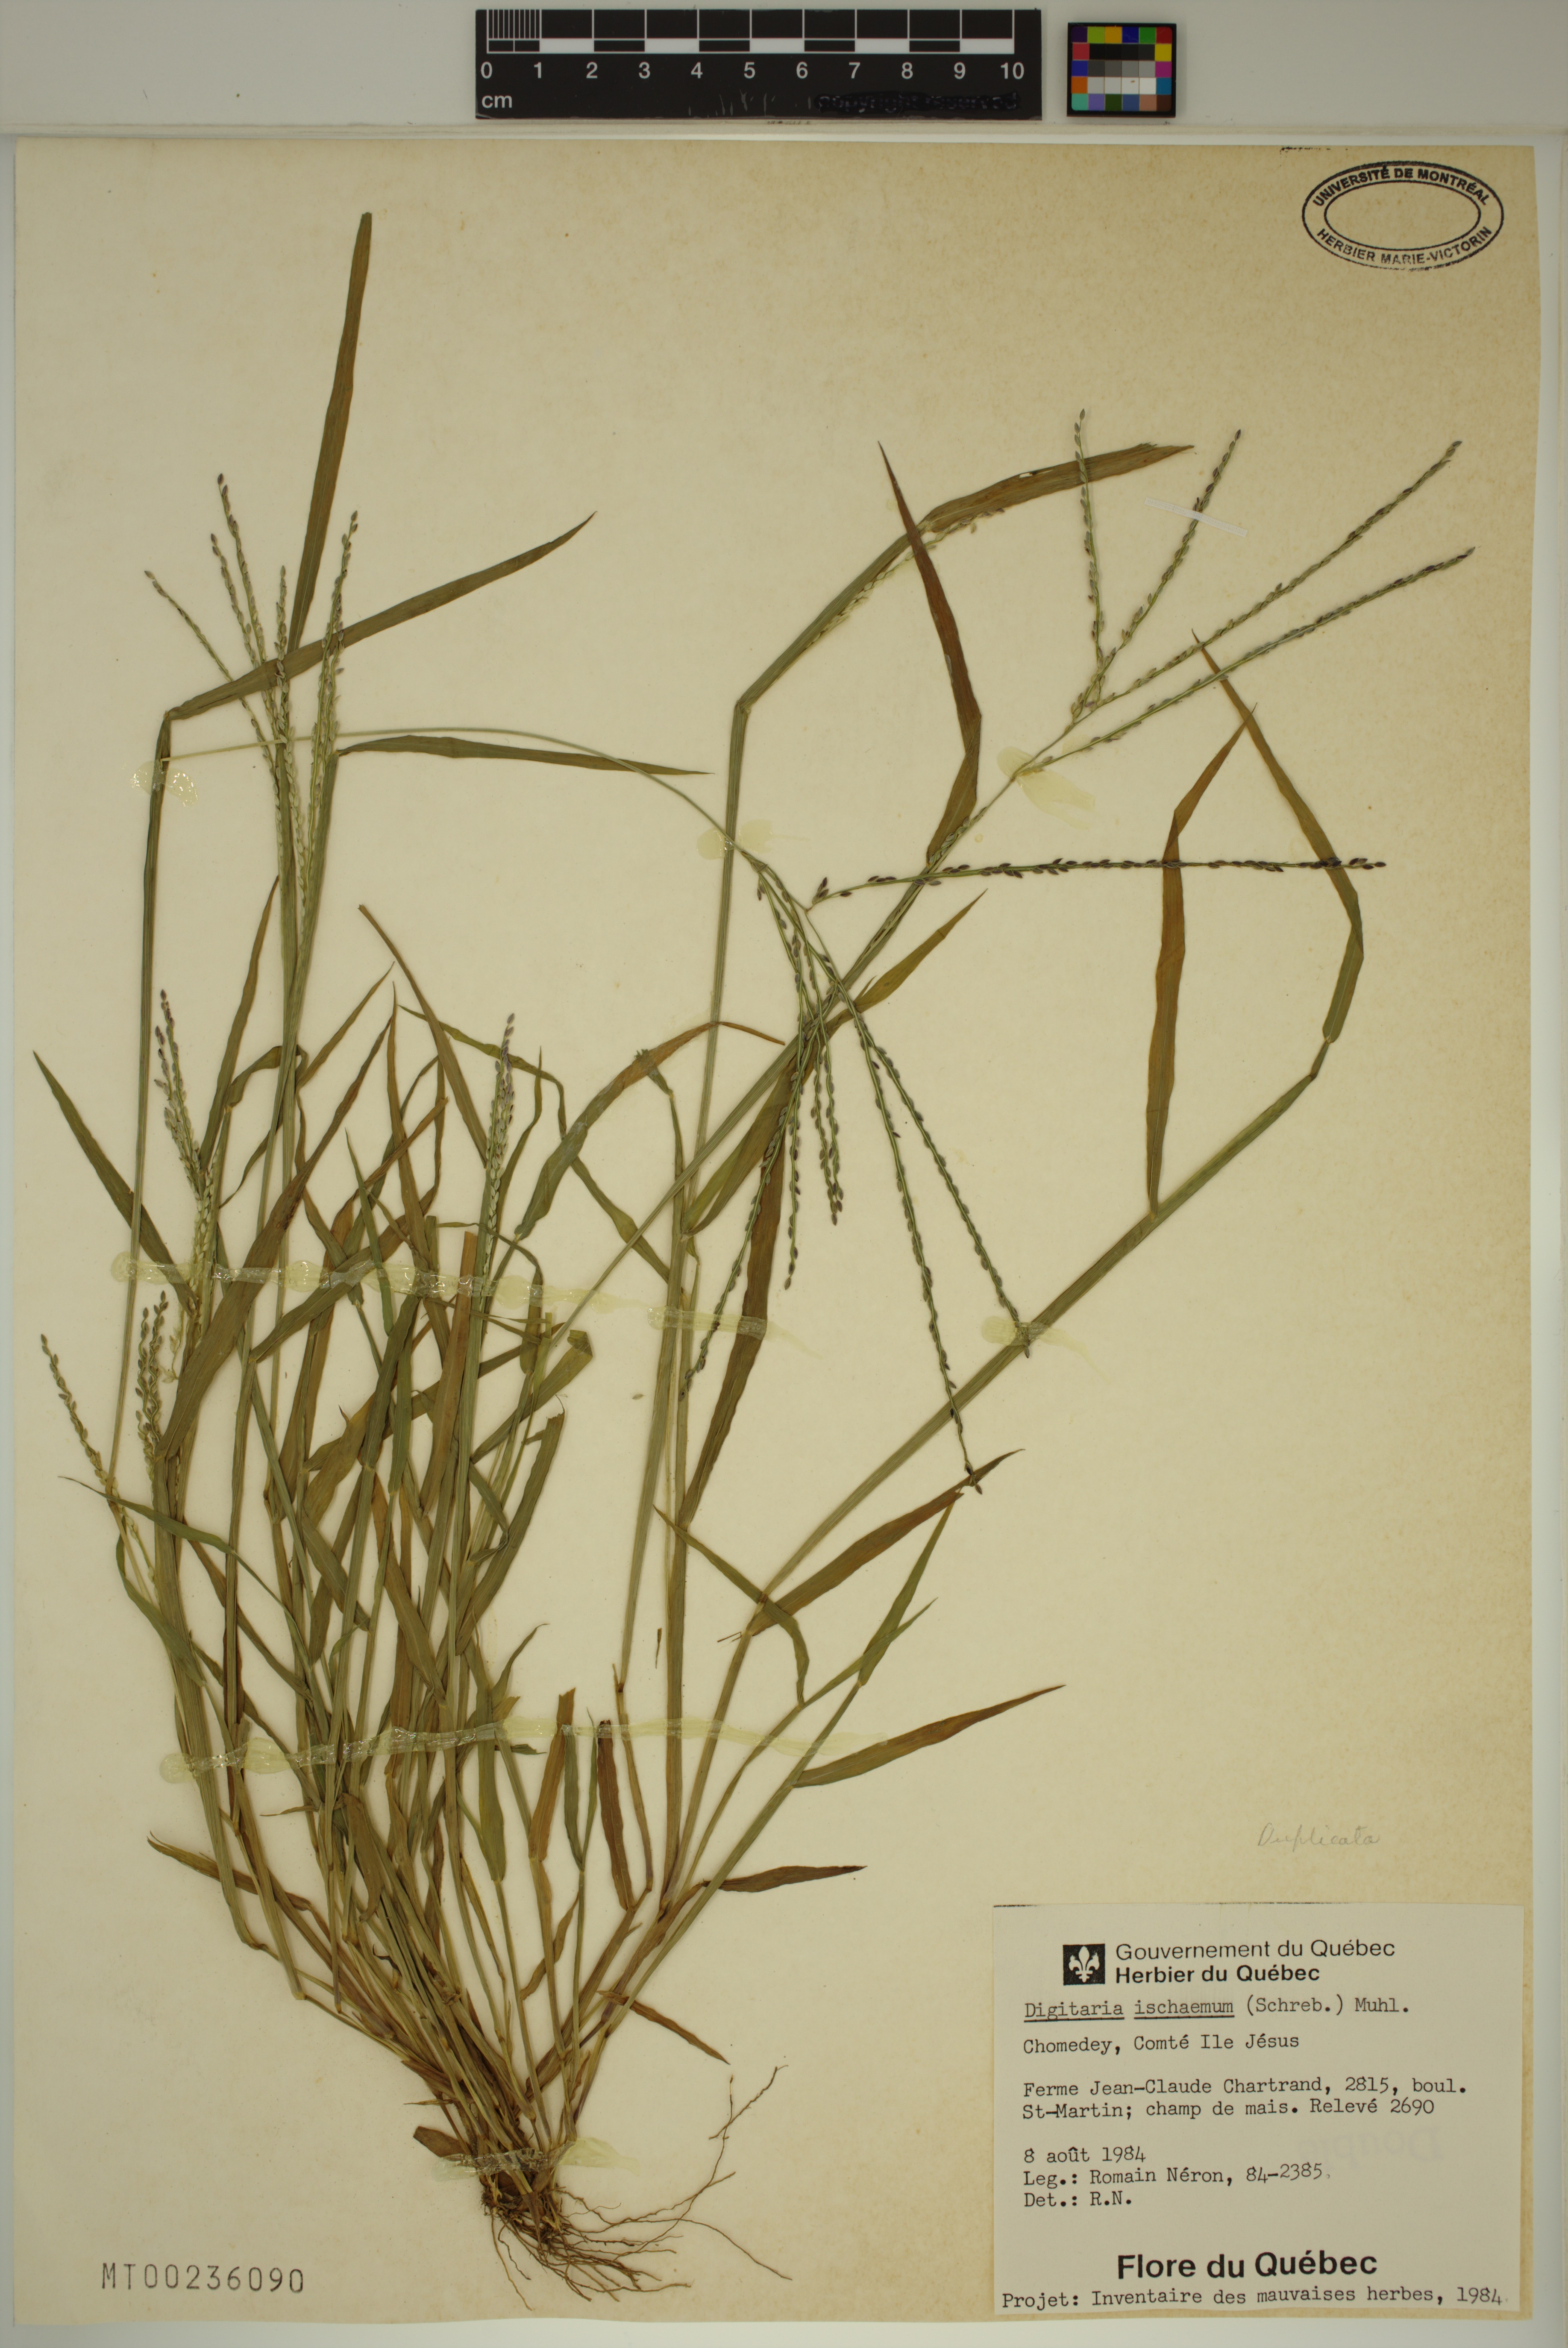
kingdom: Plantae
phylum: Tracheophyta
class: Liliopsida
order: Poales
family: Poaceae
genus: Digitaria
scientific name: Digitaria ischaemum
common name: Smooth crabgrass
